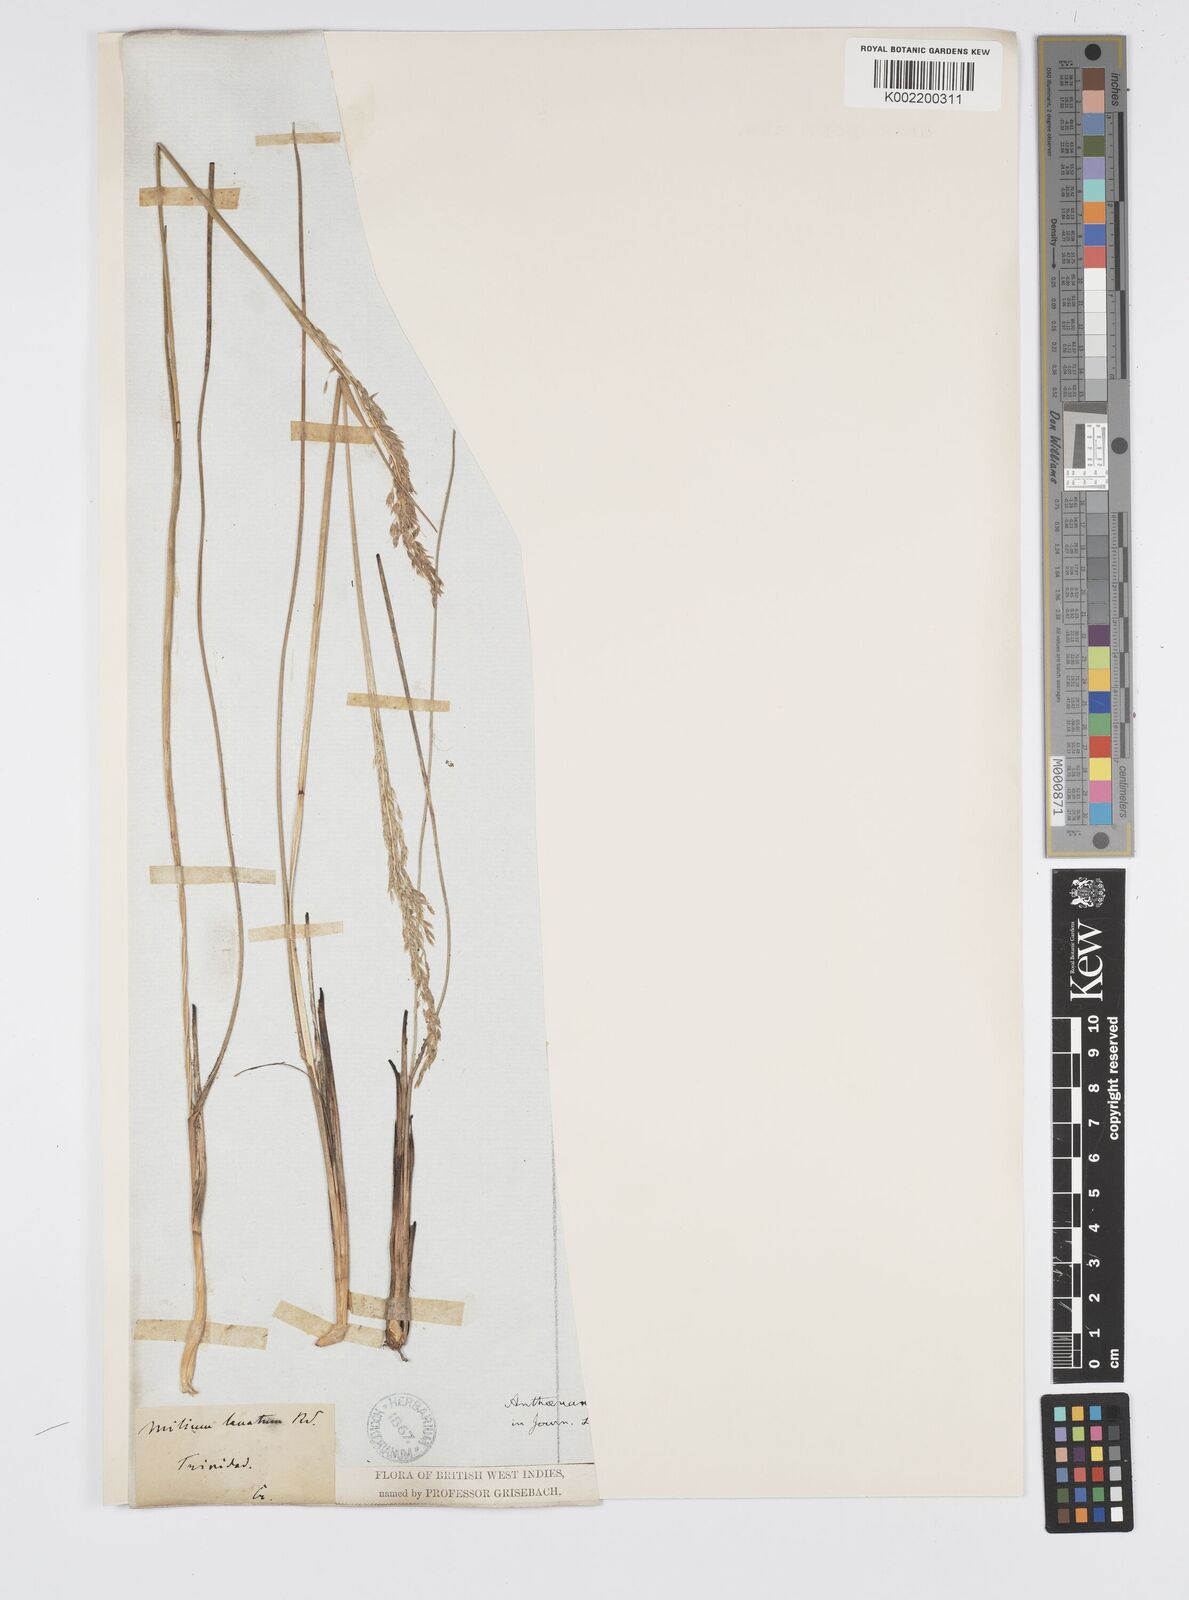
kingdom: Plantae
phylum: Tracheophyta
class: Liliopsida
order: Poales
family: Poaceae
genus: Anthenantia
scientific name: Anthenantia lanata
